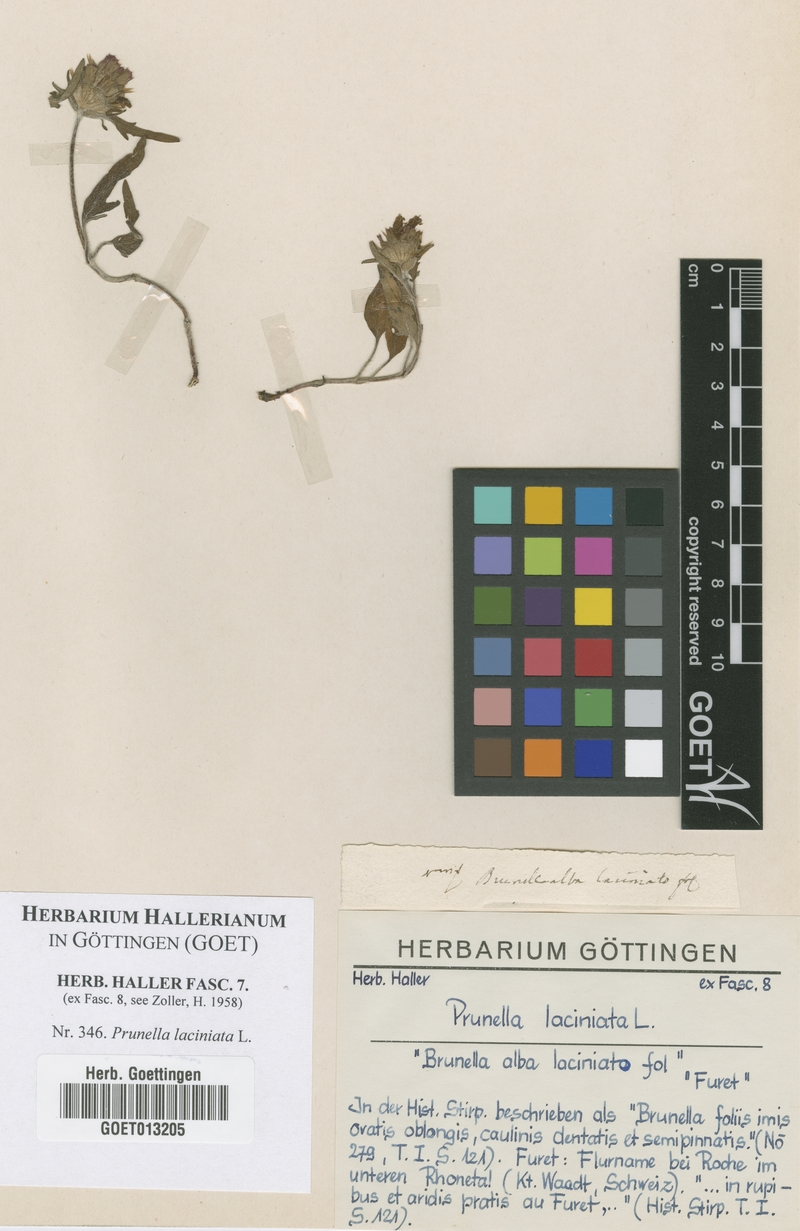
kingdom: Plantae
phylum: Tracheophyta
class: Magnoliopsida
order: Lamiales
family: Lamiaceae
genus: Prunella
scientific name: Prunella laciniata
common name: Cut-leaved selfheal
